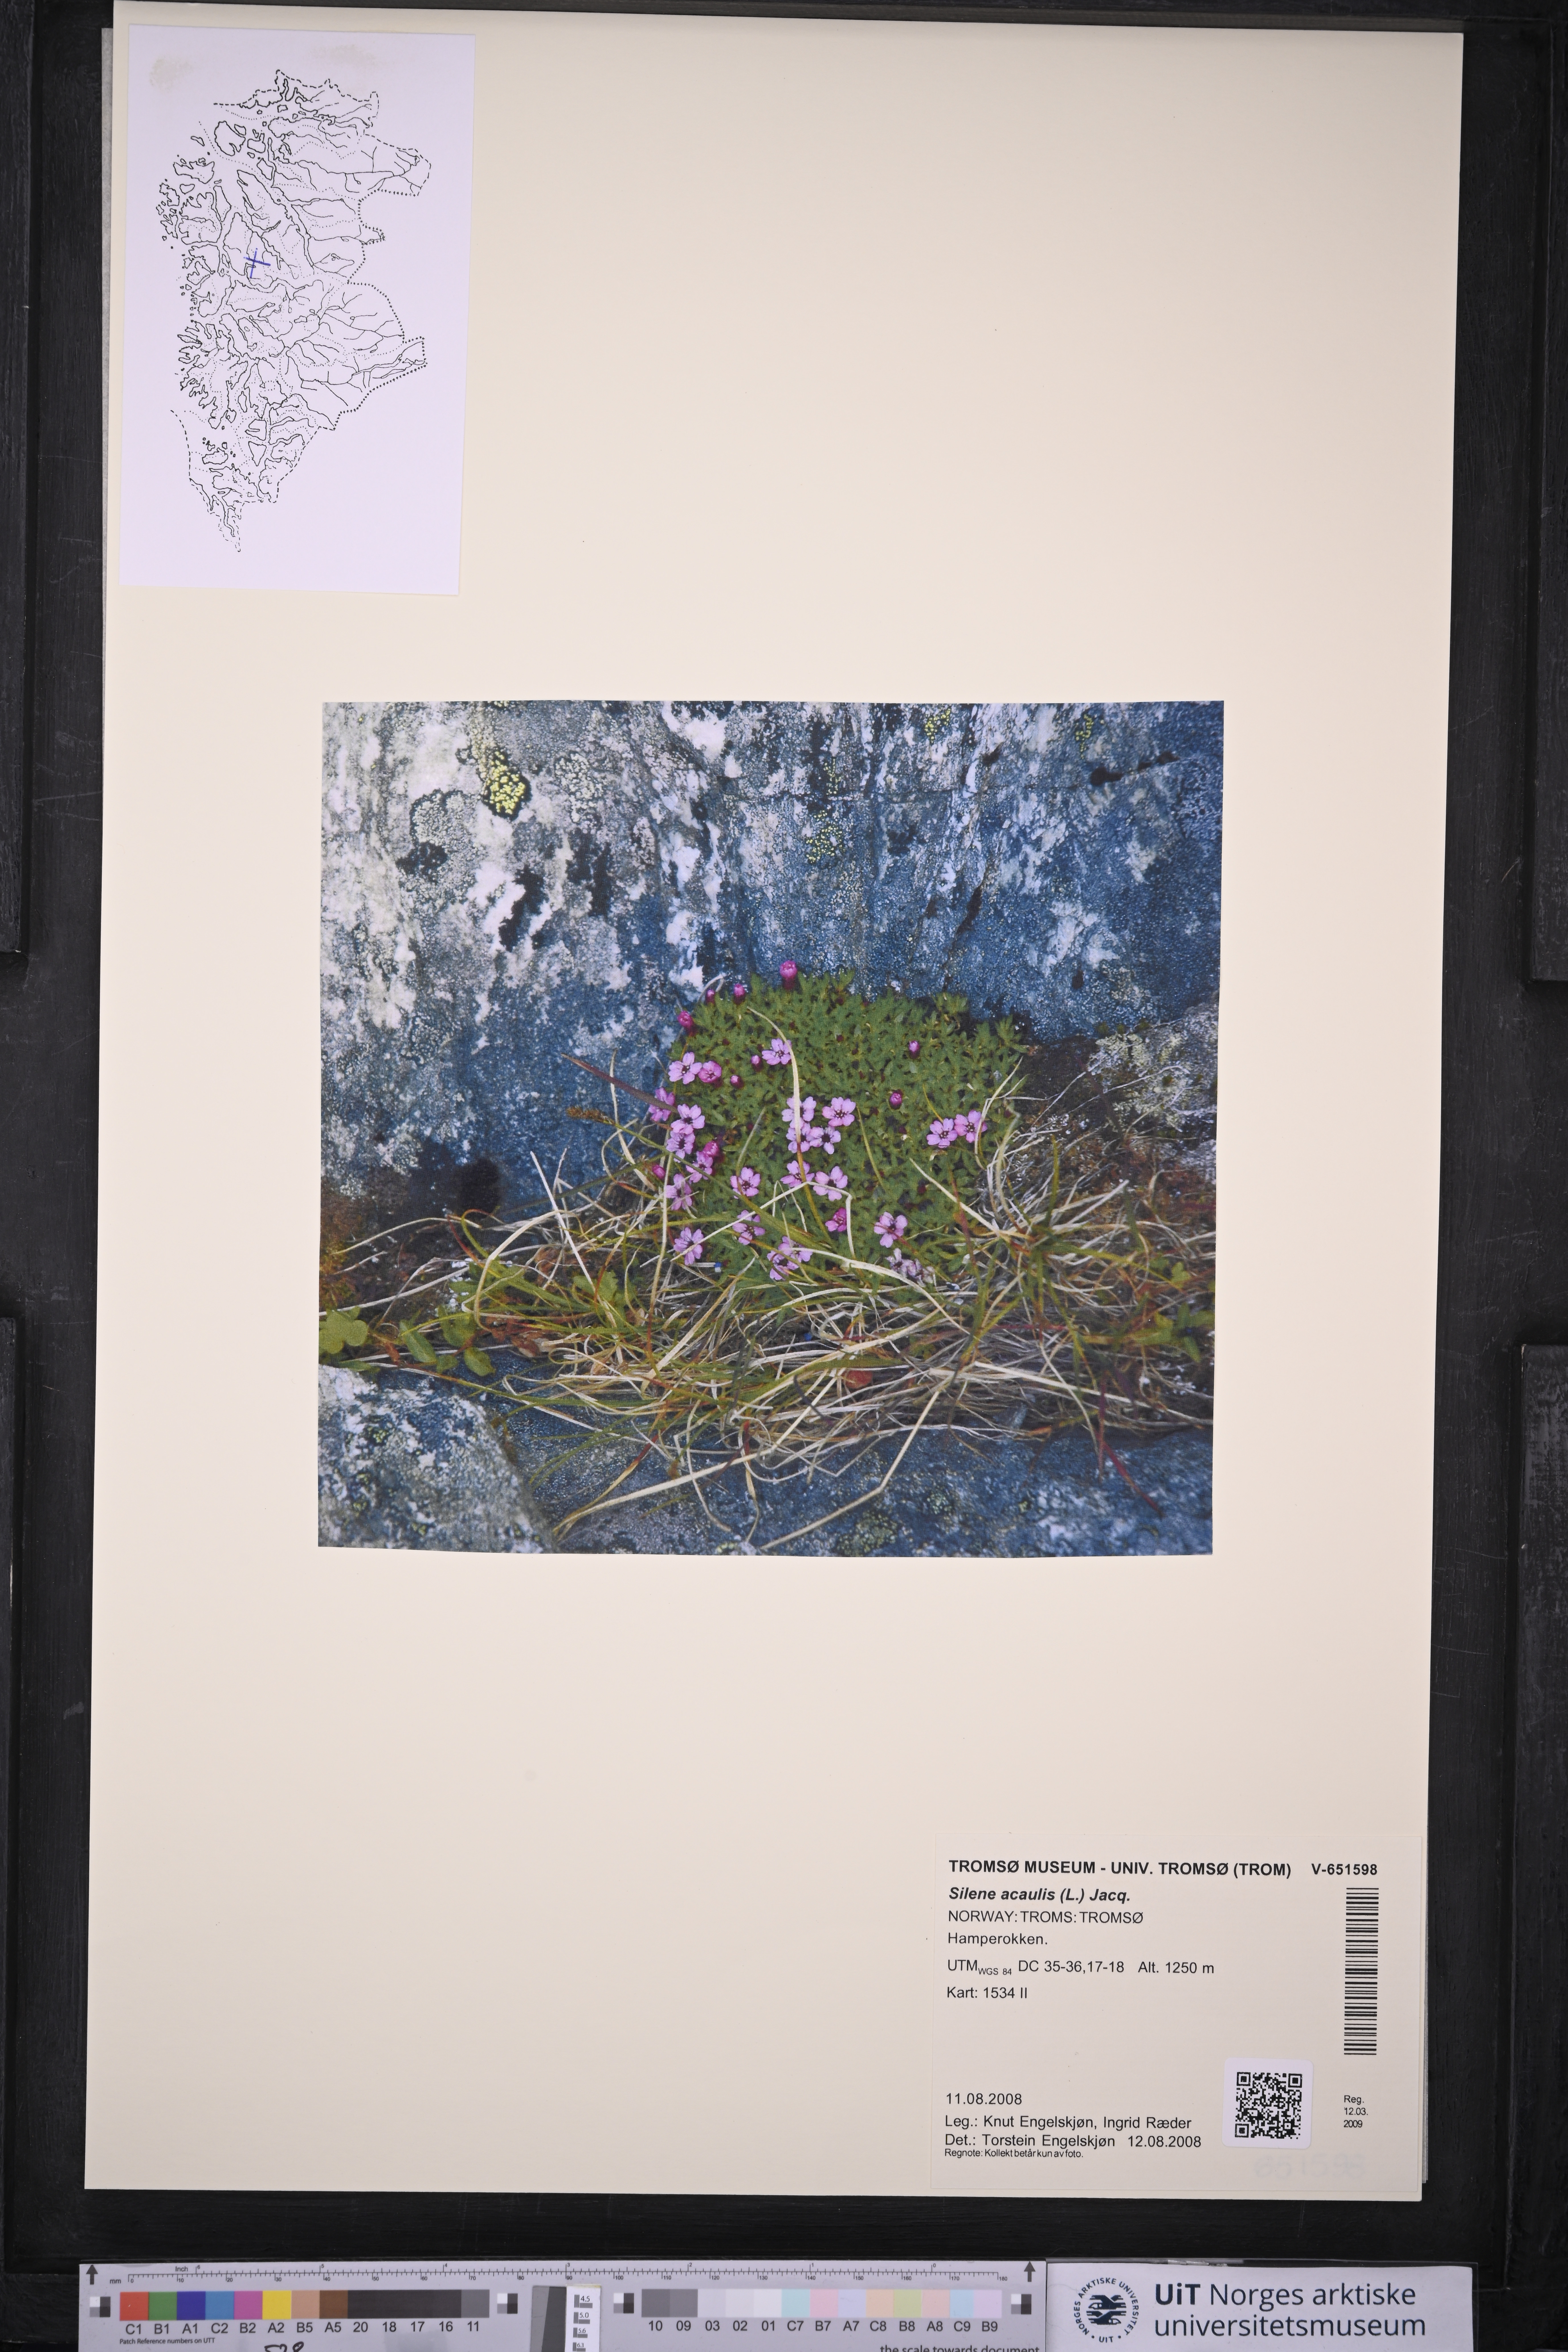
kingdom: Plantae
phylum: Tracheophyta
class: Magnoliopsida
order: Caryophyllales
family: Caryophyllaceae
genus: Silene
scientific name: Silene acaulis
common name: Moss campion
